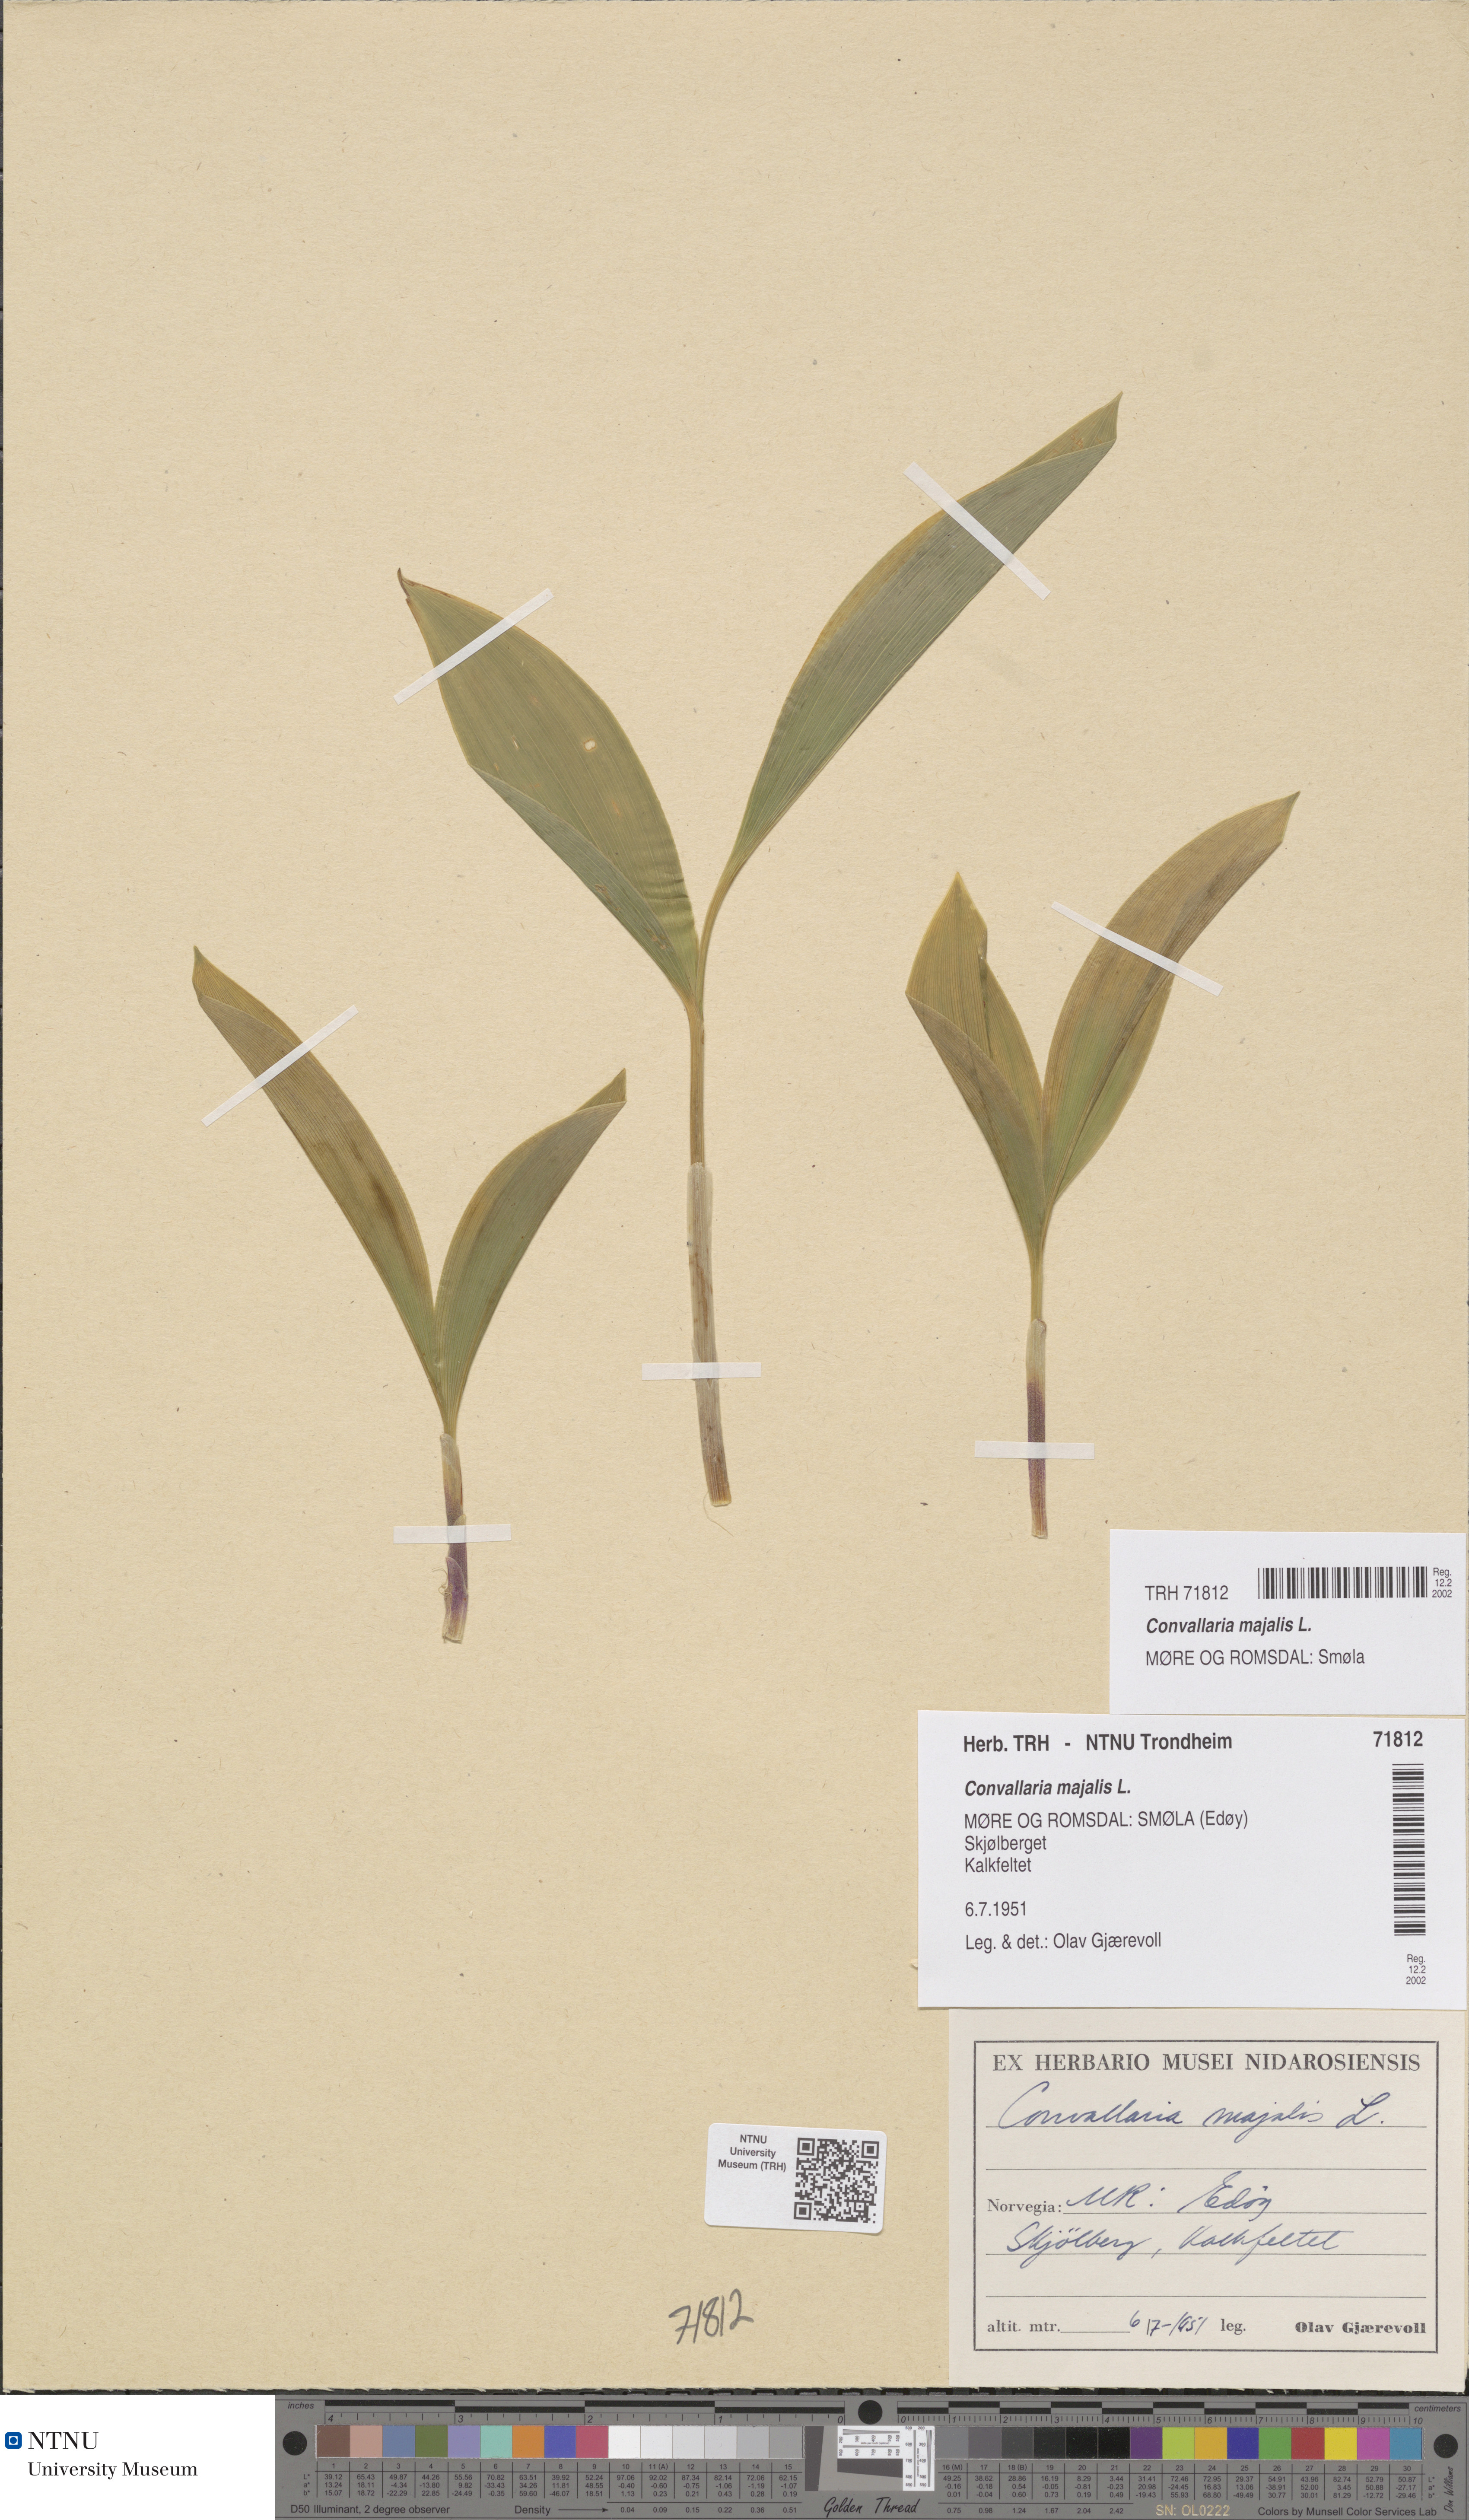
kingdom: Plantae
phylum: Tracheophyta
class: Liliopsida
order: Asparagales
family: Asparagaceae
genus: Convallaria
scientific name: Convallaria majalis
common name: Lily-of-the-valley
